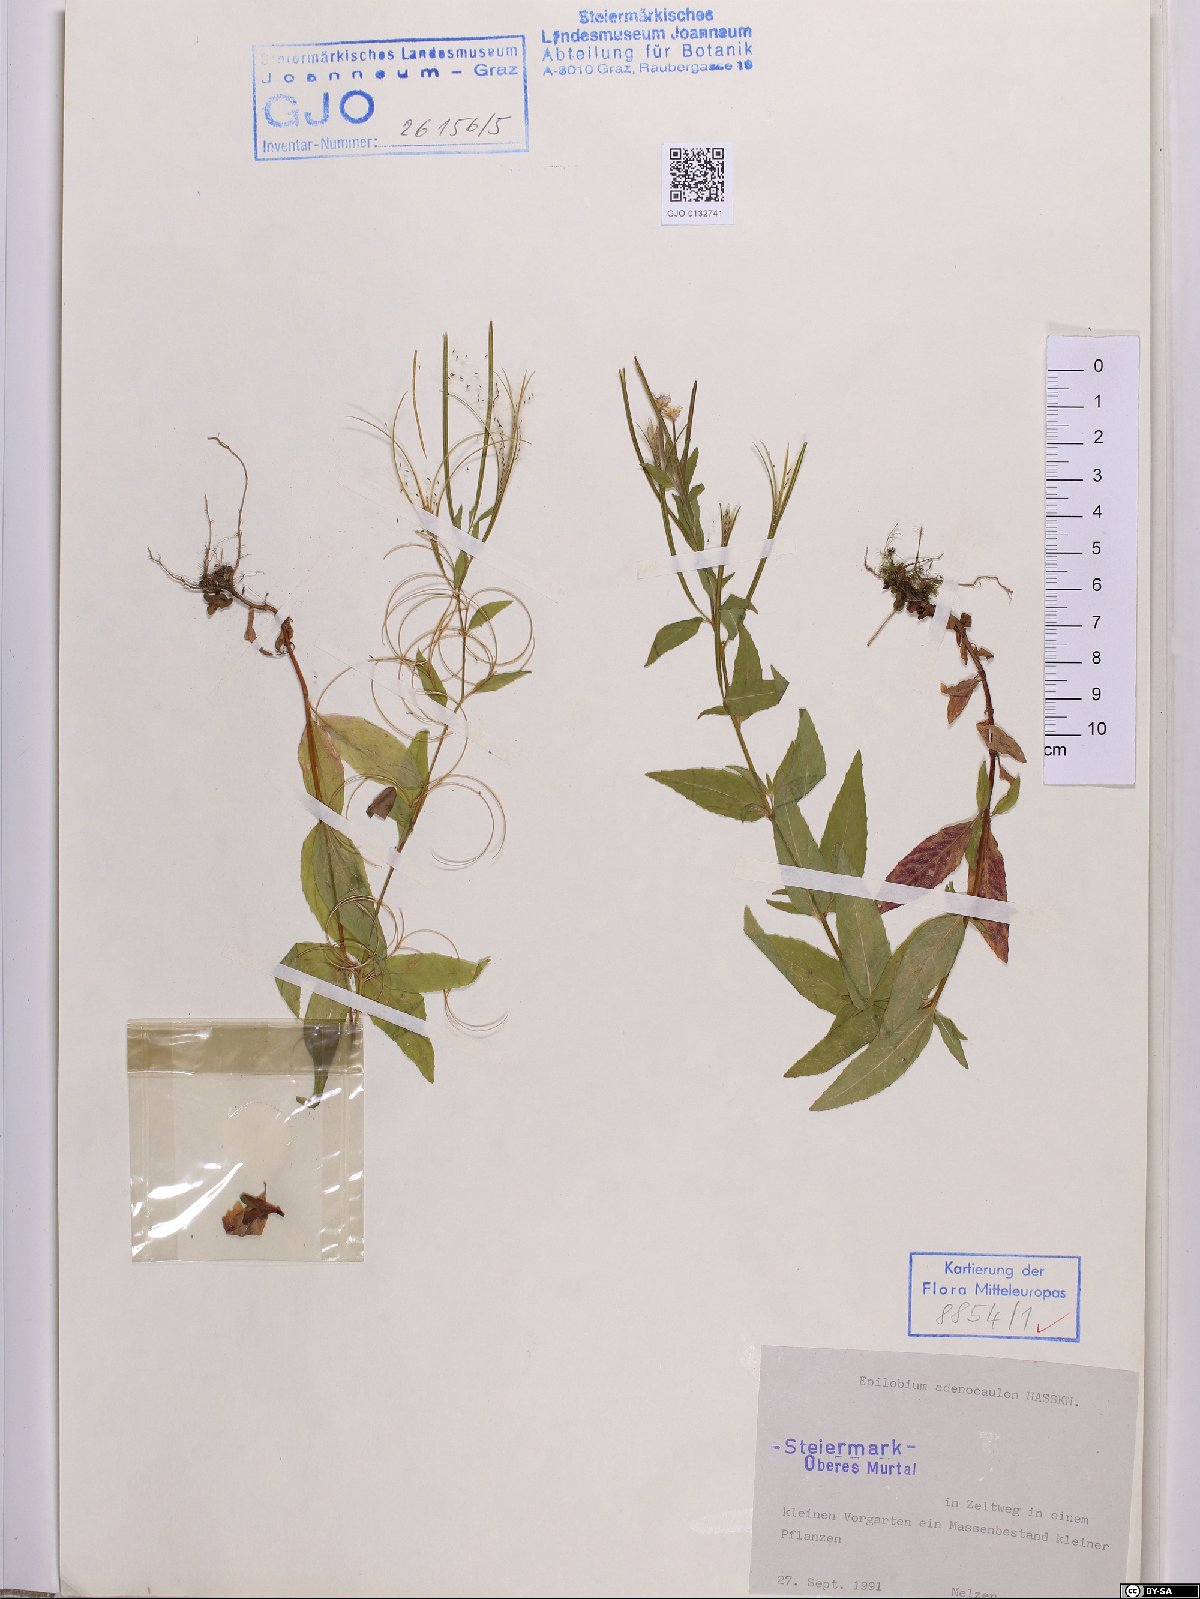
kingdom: Plantae
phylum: Tracheophyta
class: Magnoliopsida
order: Myrtales
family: Onagraceae
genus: Epilobium
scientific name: Epilobium ciliatum
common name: American willowherb
